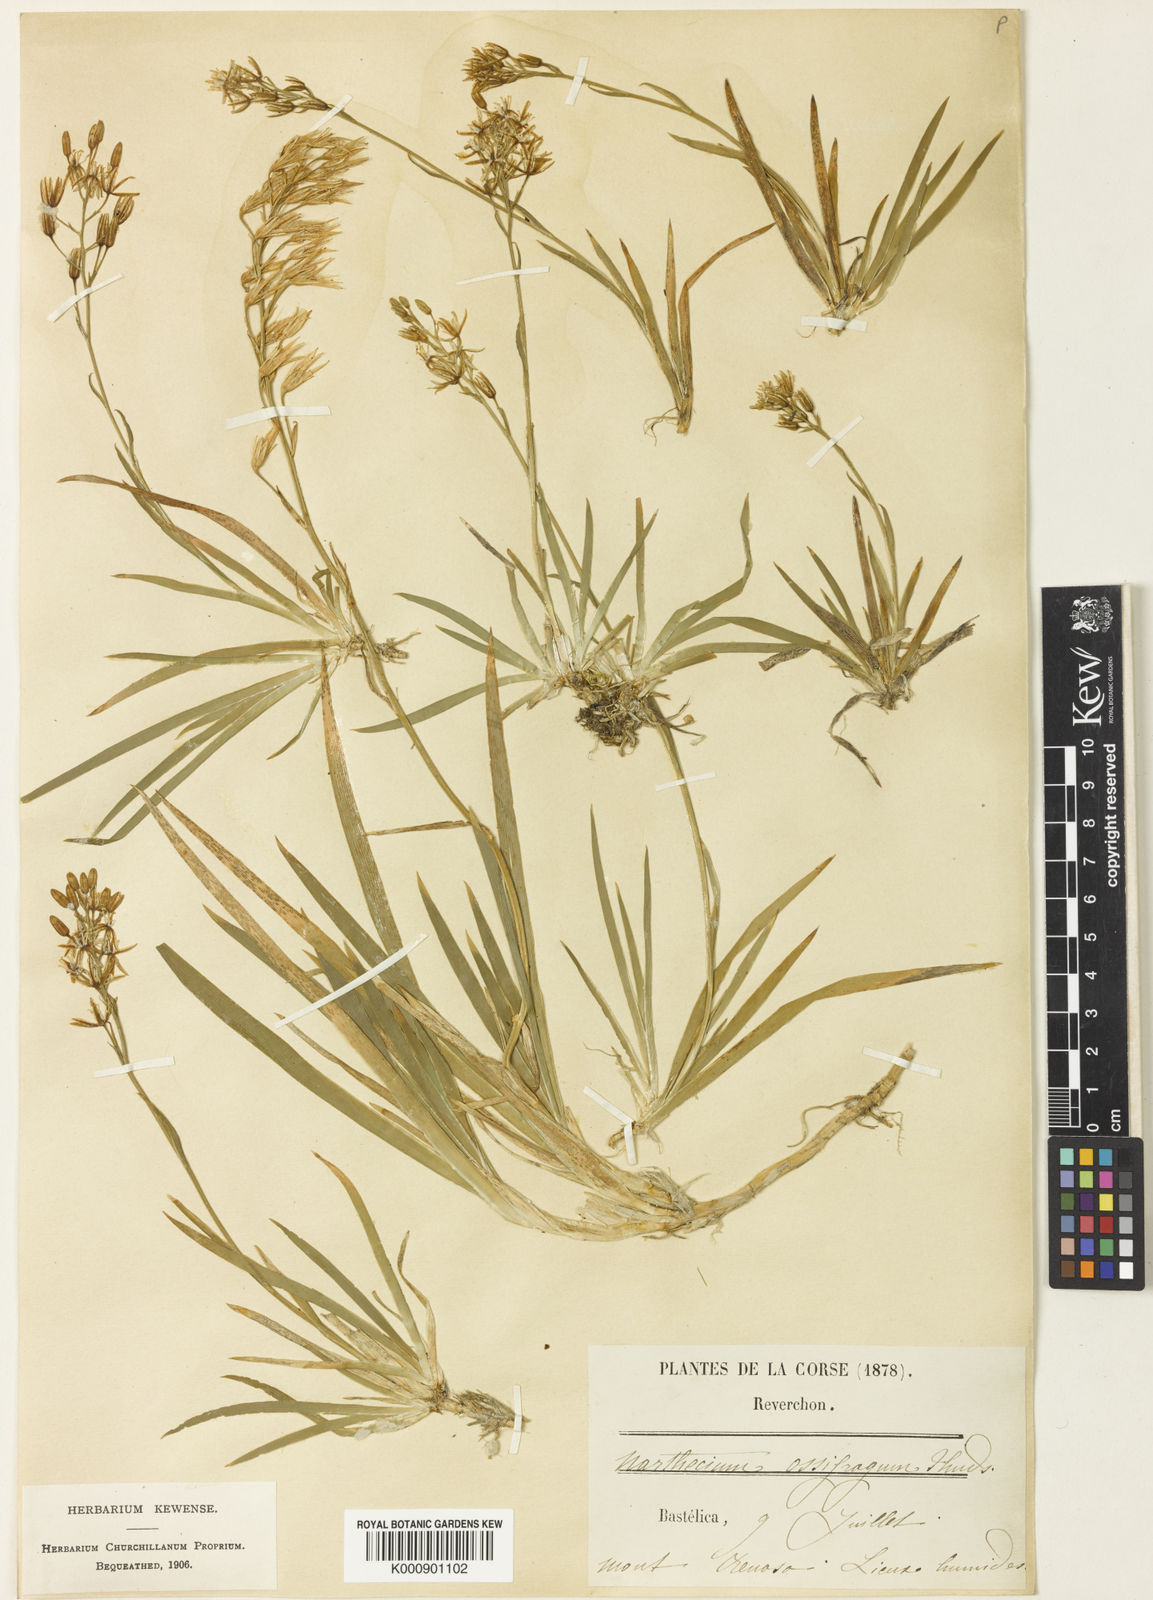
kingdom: Plantae
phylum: Tracheophyta
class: Liliopsida
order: Dioscoreales
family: Nartheciaceae
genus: Narthecium
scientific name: Narthecium ossifragum
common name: Bog asphodel
